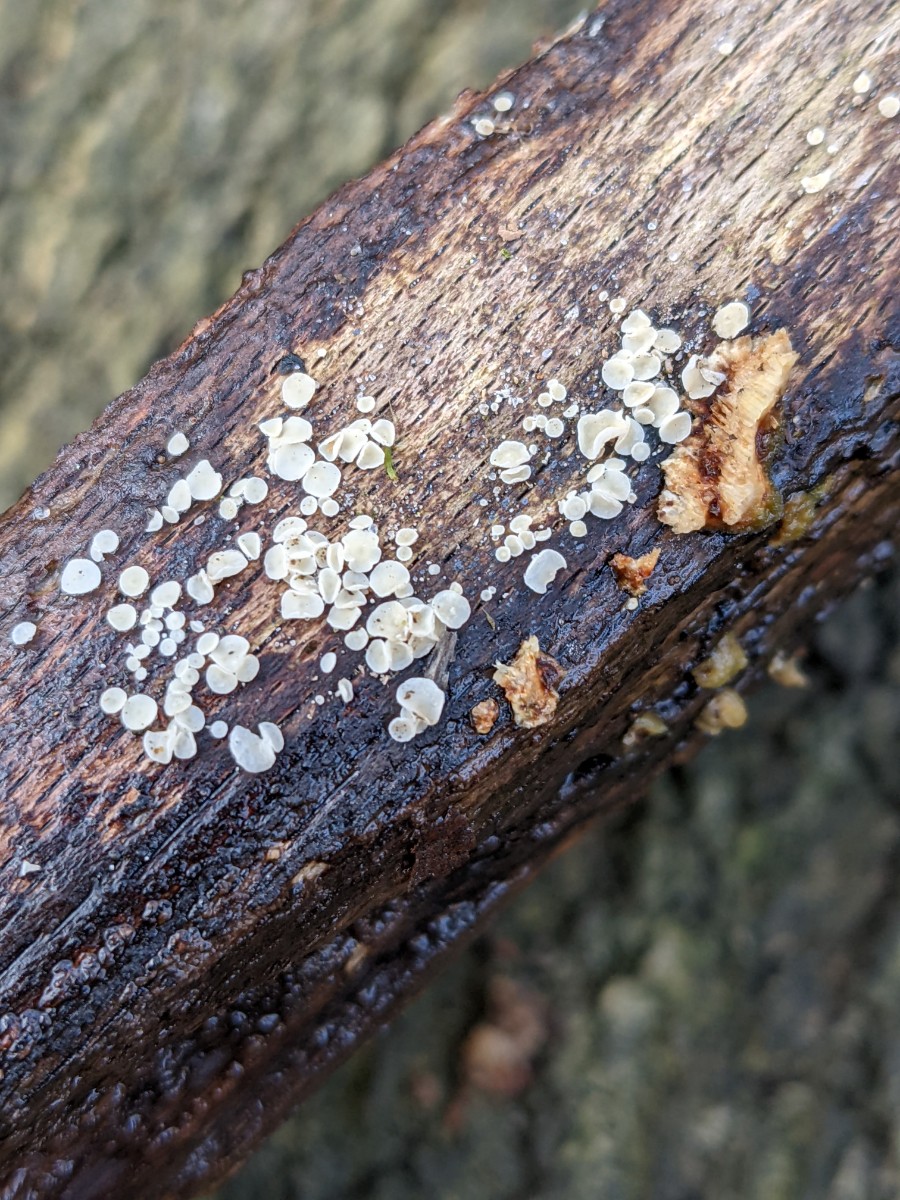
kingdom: Fungi
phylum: Ascomycota
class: Leotiomycetes
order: Helotiales
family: Lachnaceae
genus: Lachnum
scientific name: Lachnum impudicum
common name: vinter-frynseskive
